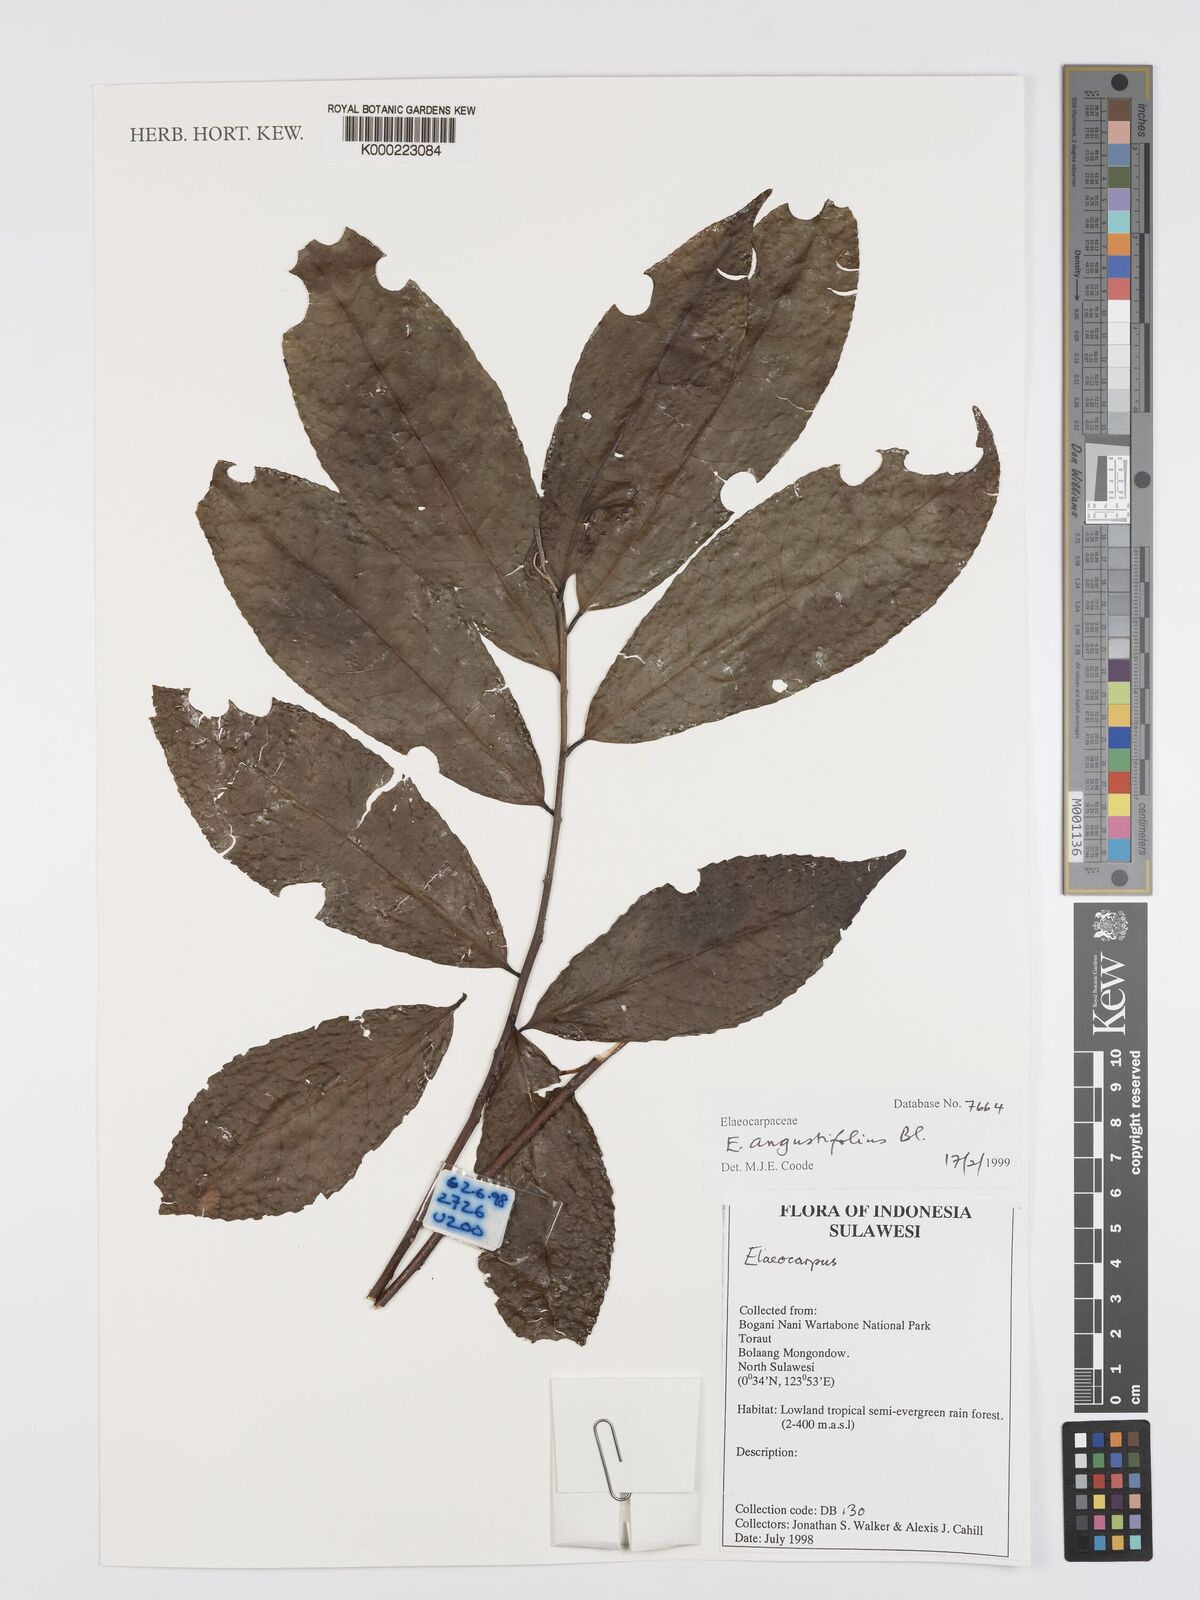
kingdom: Plantae
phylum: Tracheophyta
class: Magnoliopsida
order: Oxalidales
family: Elaeocarpaceae
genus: Elaeocarpus
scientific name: Elaeocarpus angustifolius
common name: Blue marble tree
